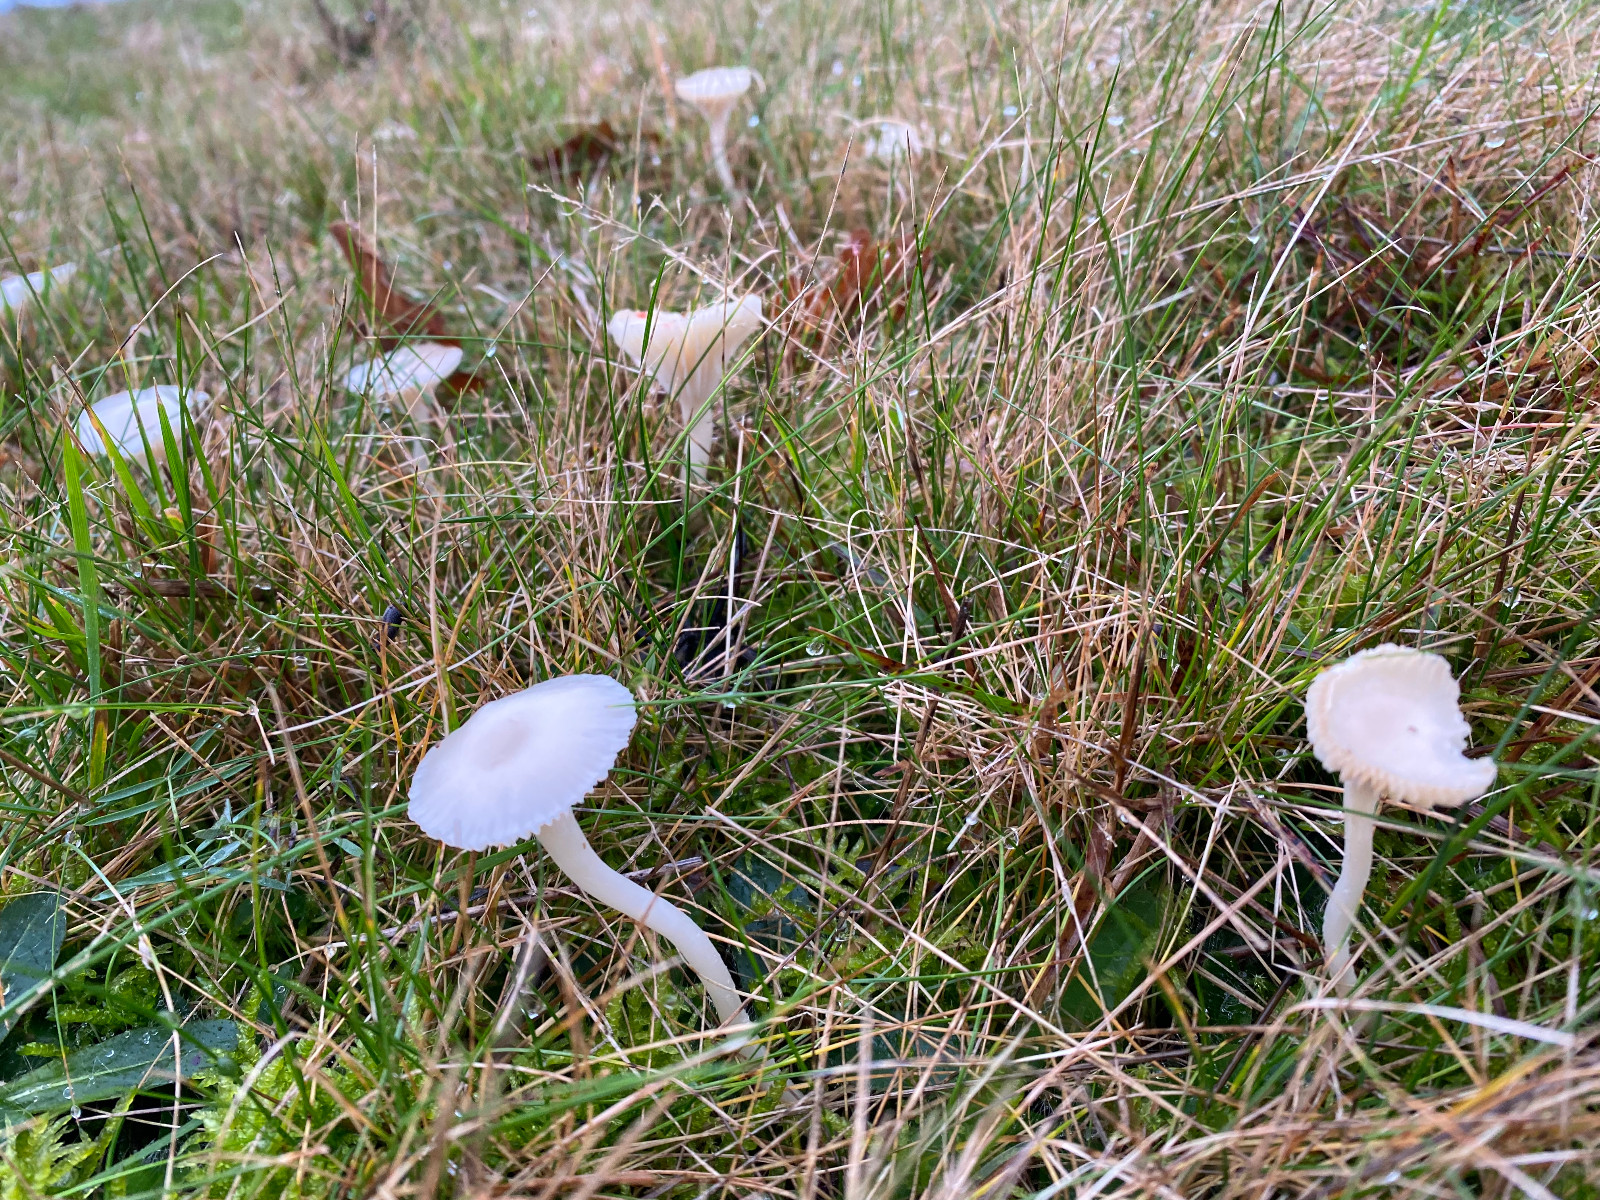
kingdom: Fungi
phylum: Basidiomycota
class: Agaricomycetes
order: Agaricales
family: Hygrophoraceae
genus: Cuphophyllus
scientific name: Cuphophyllus virgineus
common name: snehvid vokshat
